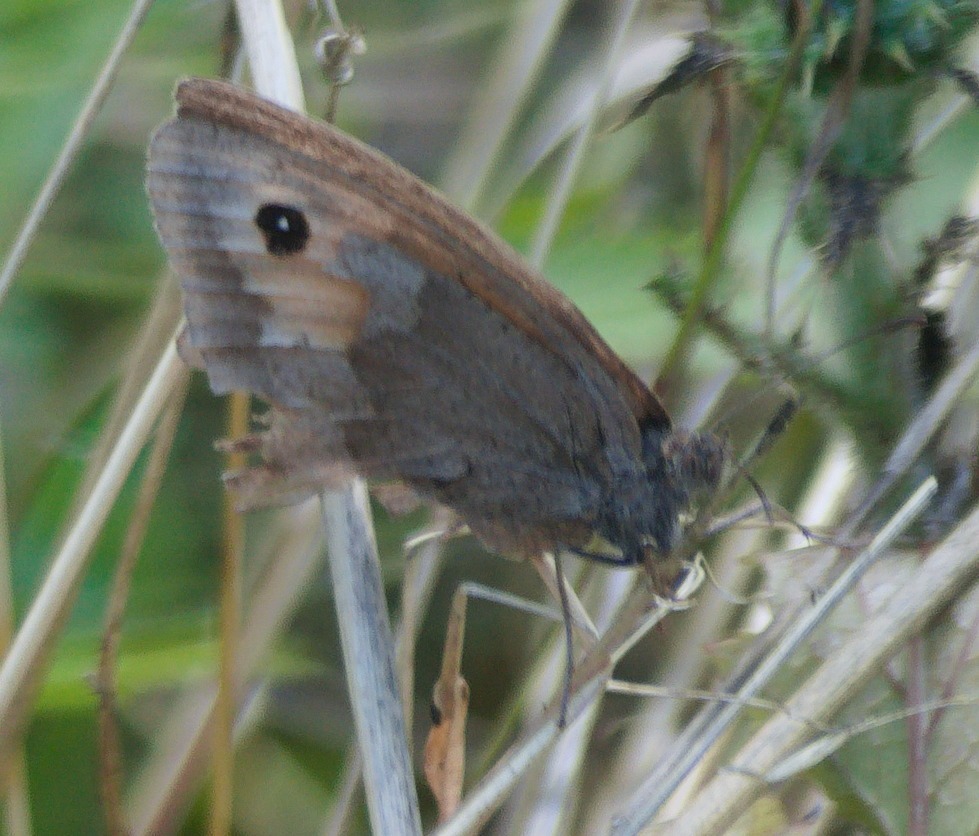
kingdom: Animalia
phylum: Arthropoda
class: Insecta
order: Lepidoptera
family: Nymphalidae
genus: Maniola
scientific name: Maniola jurtina
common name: Græsrandøje
